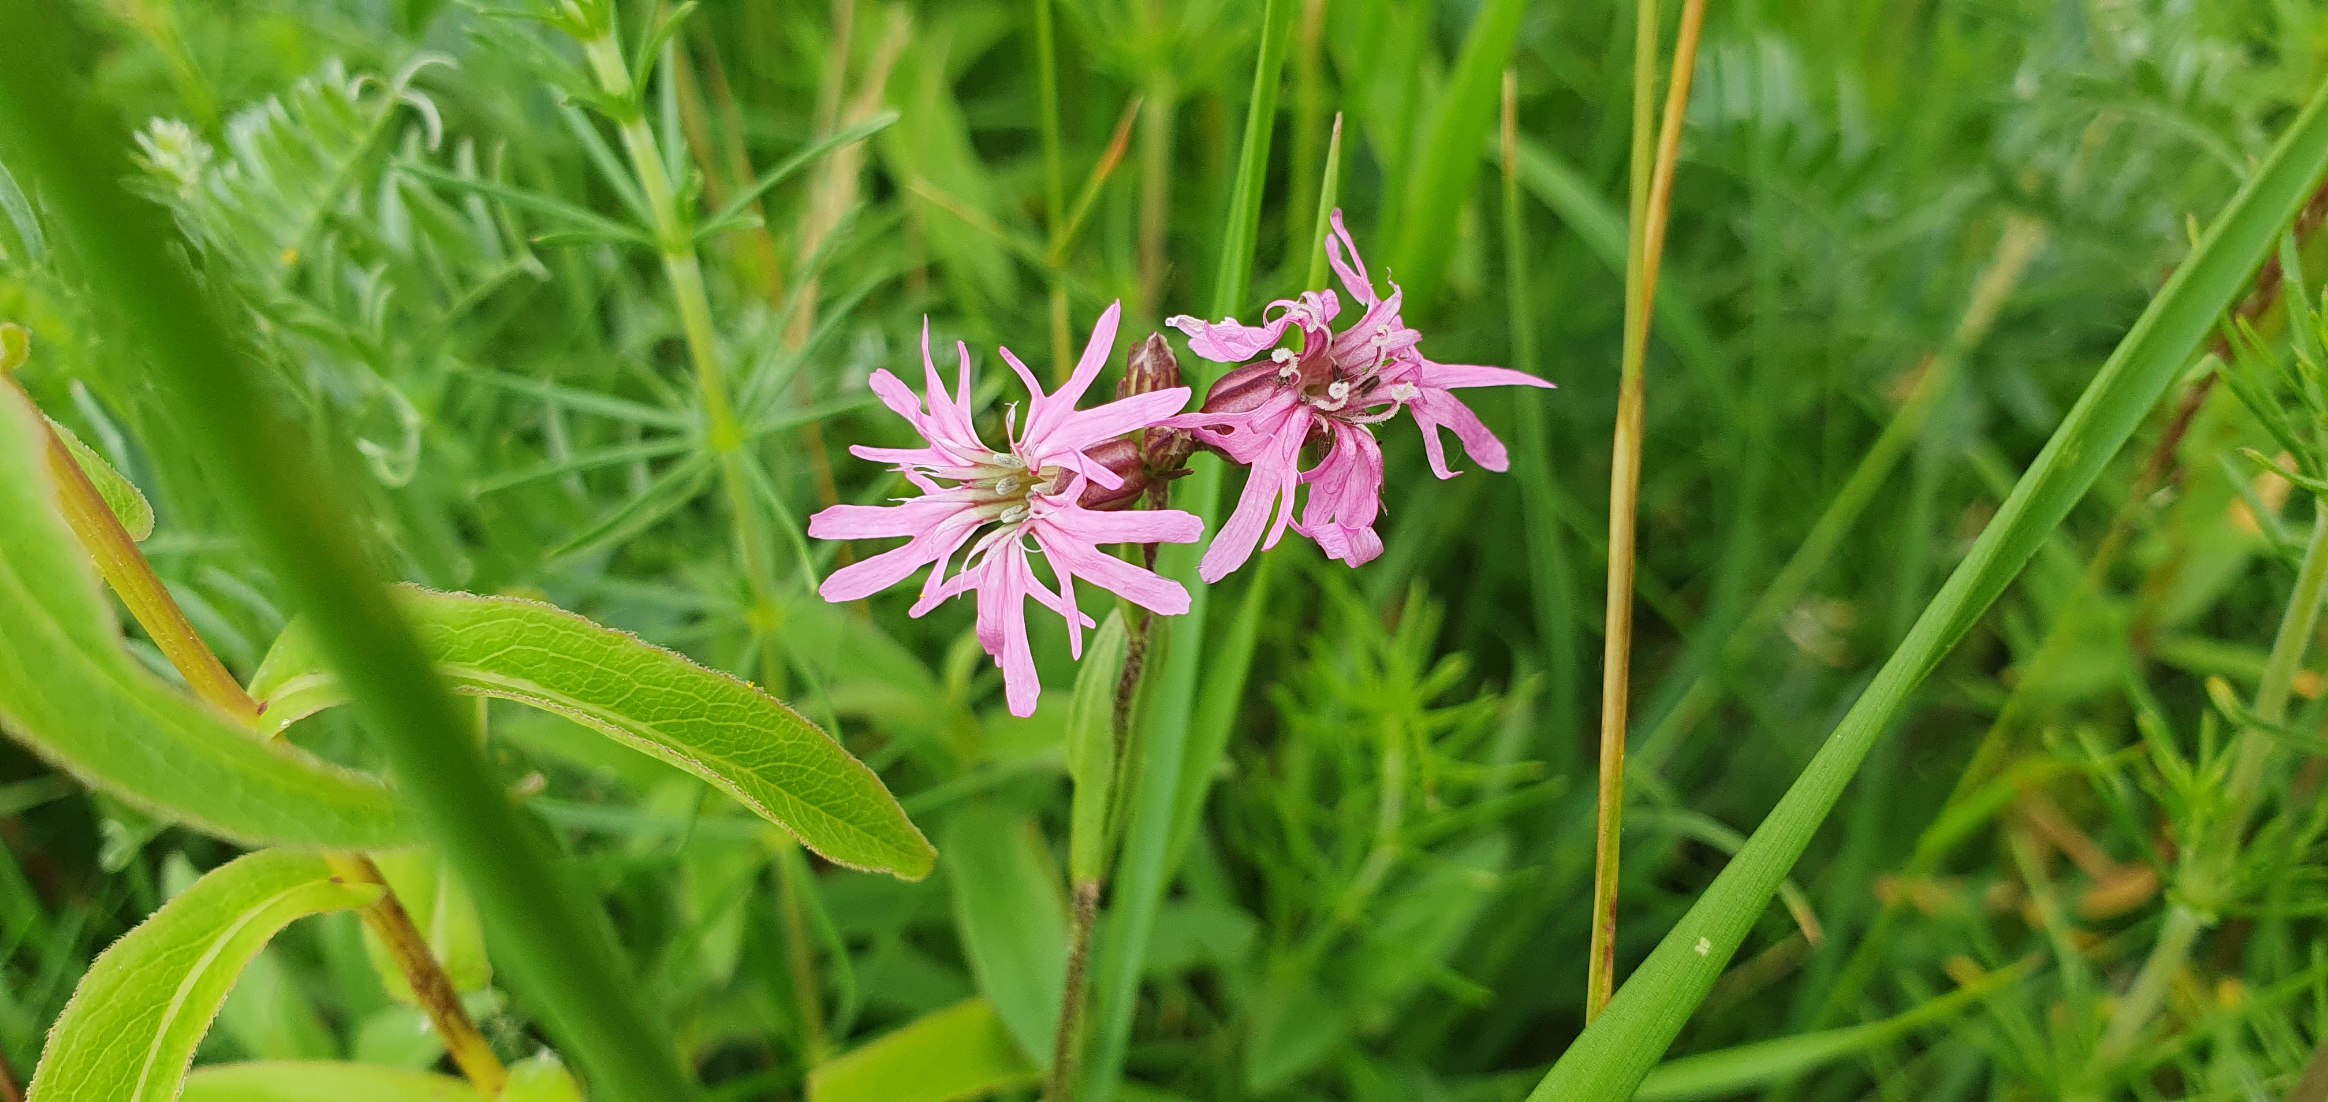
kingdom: Plantae
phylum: Tracheophyta
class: Magnoliopsida
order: Caryophyllales
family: Caryophyllaceae
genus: Silene
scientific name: Silene flos-cuculi
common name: Trævlekrone
